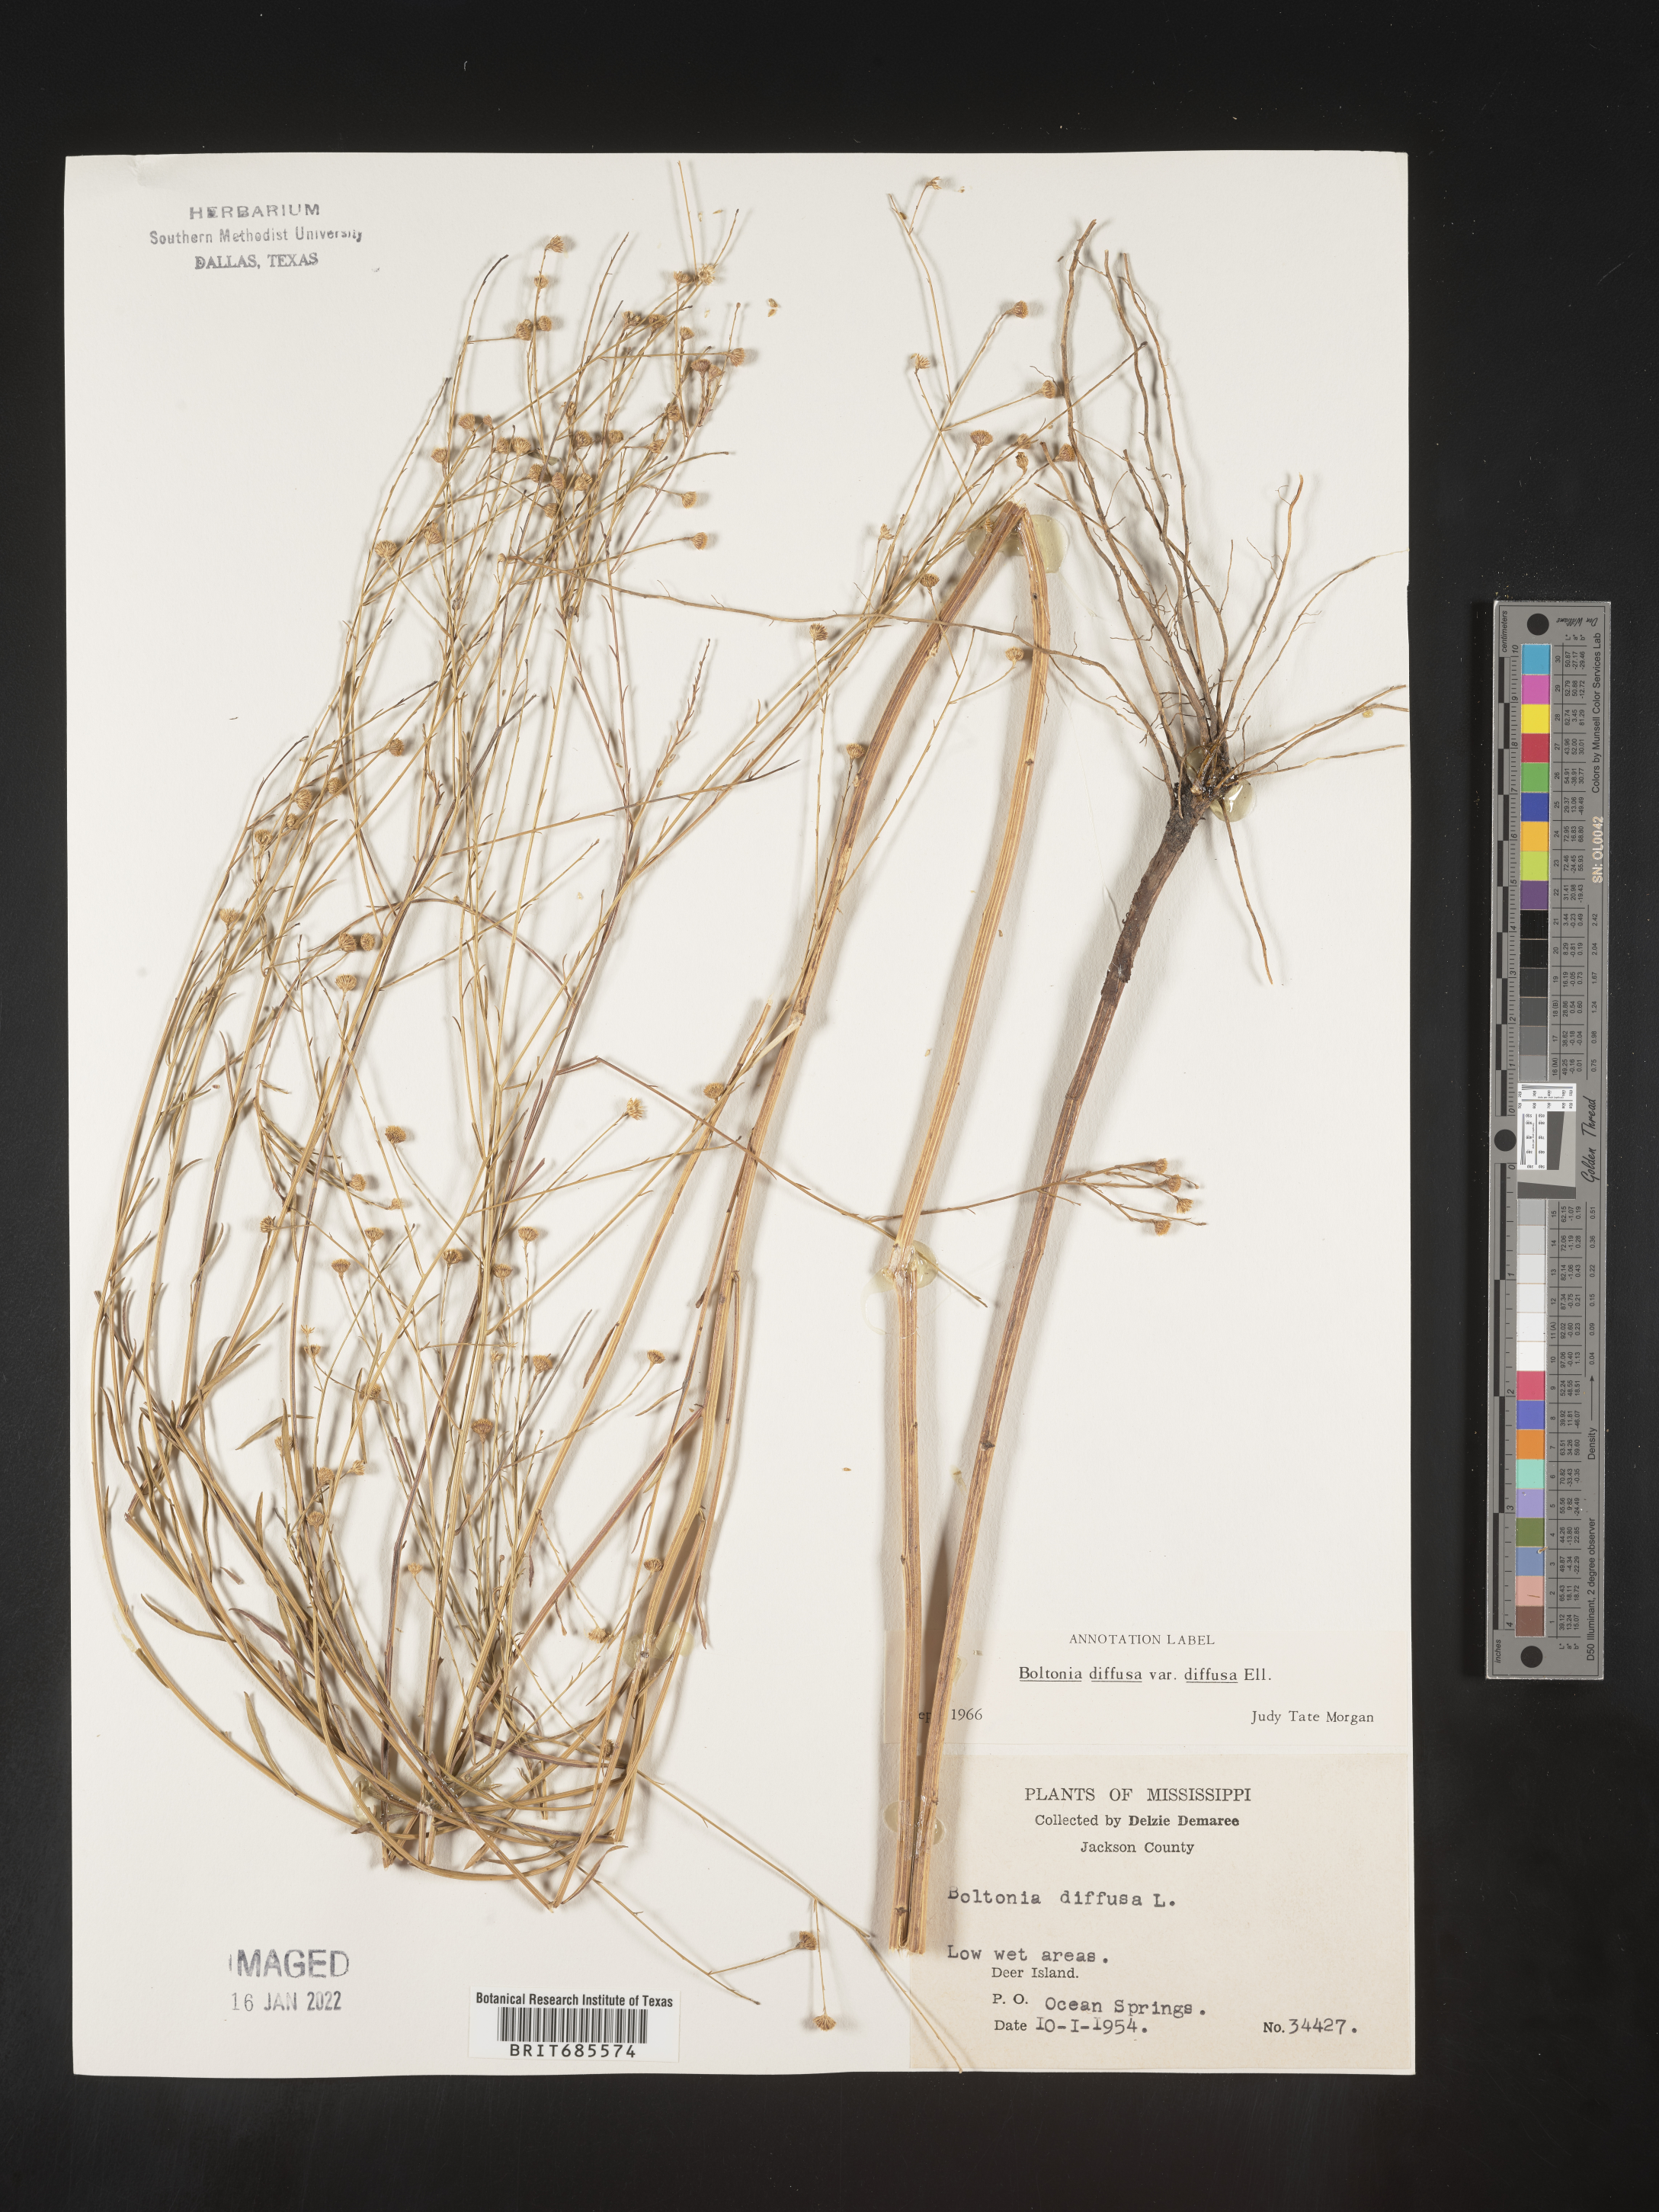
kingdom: Plantae
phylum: Tracheophyta
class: Magnoliopsida
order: Asterales
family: Asteraceae
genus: Boltonia
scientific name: Boltonia diffusa
